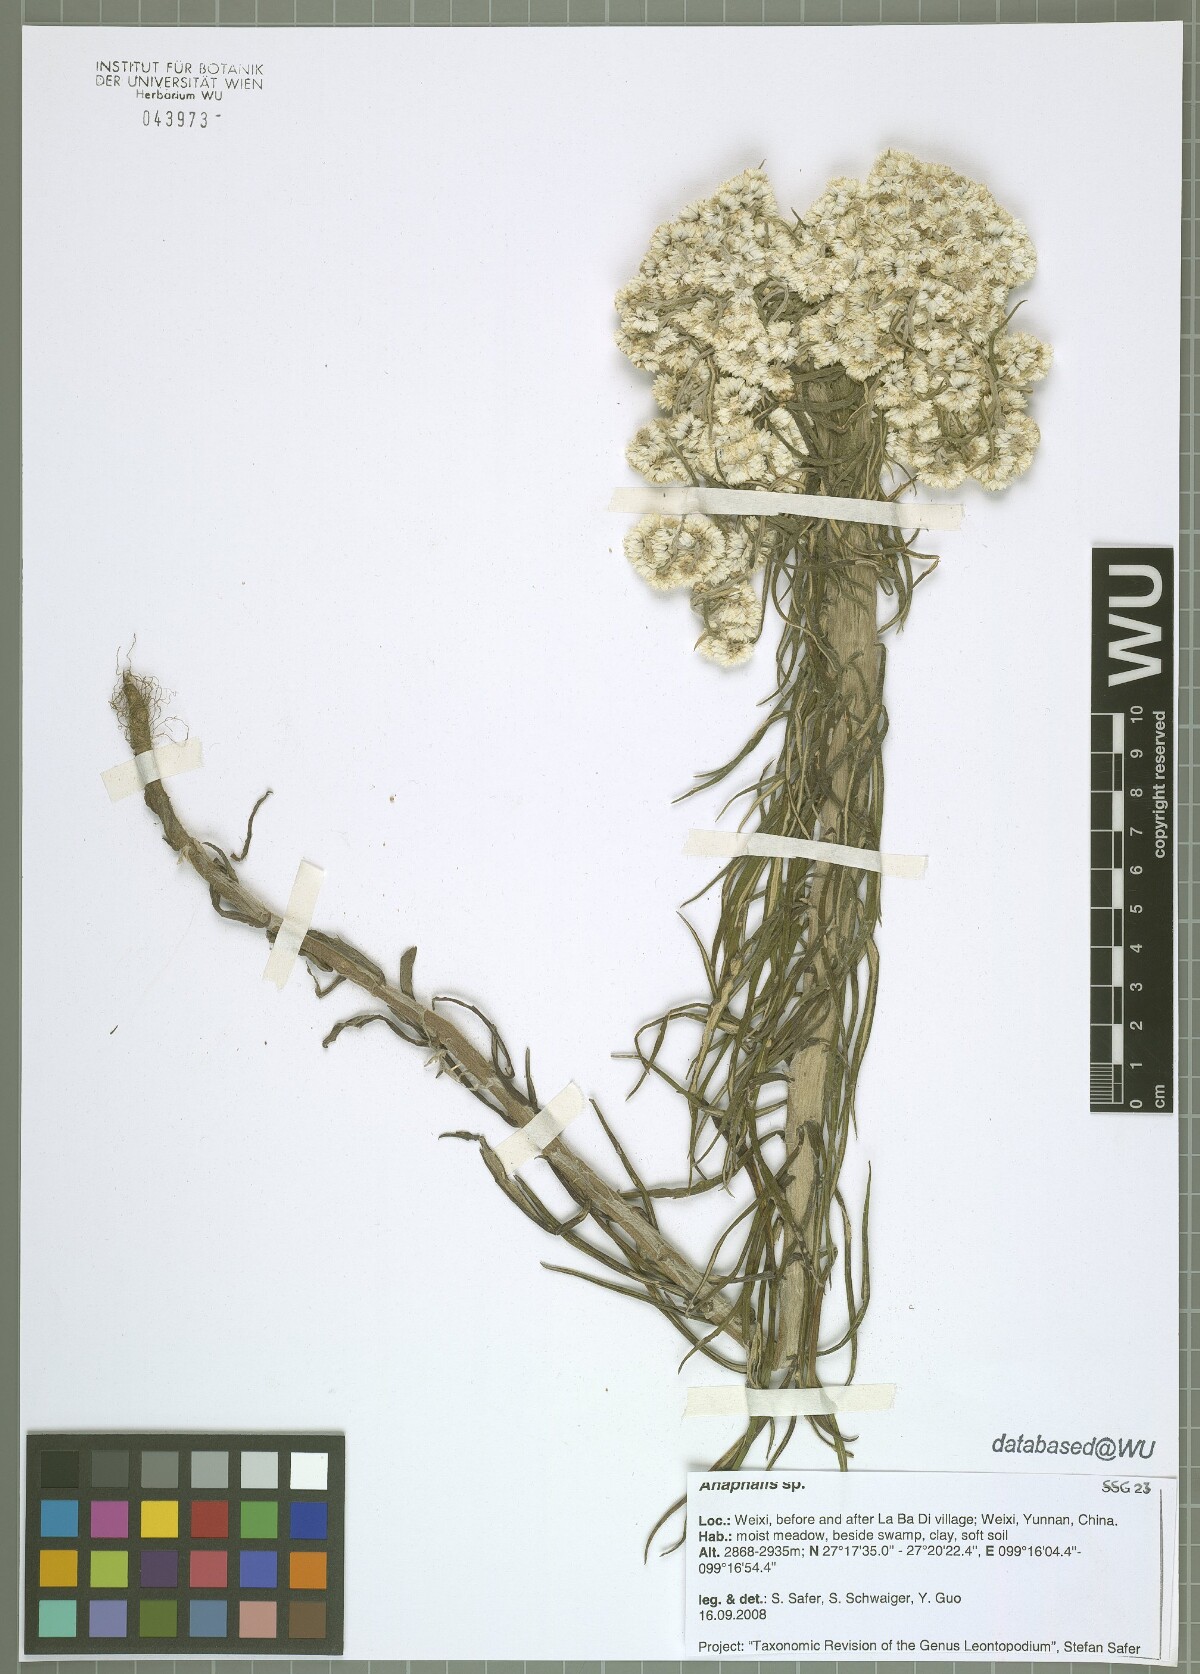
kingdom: Plantae
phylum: Tracheophyta
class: Magnoliopsida
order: Asterales
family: Asteraceae
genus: Anaphalis
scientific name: Anaphalis
